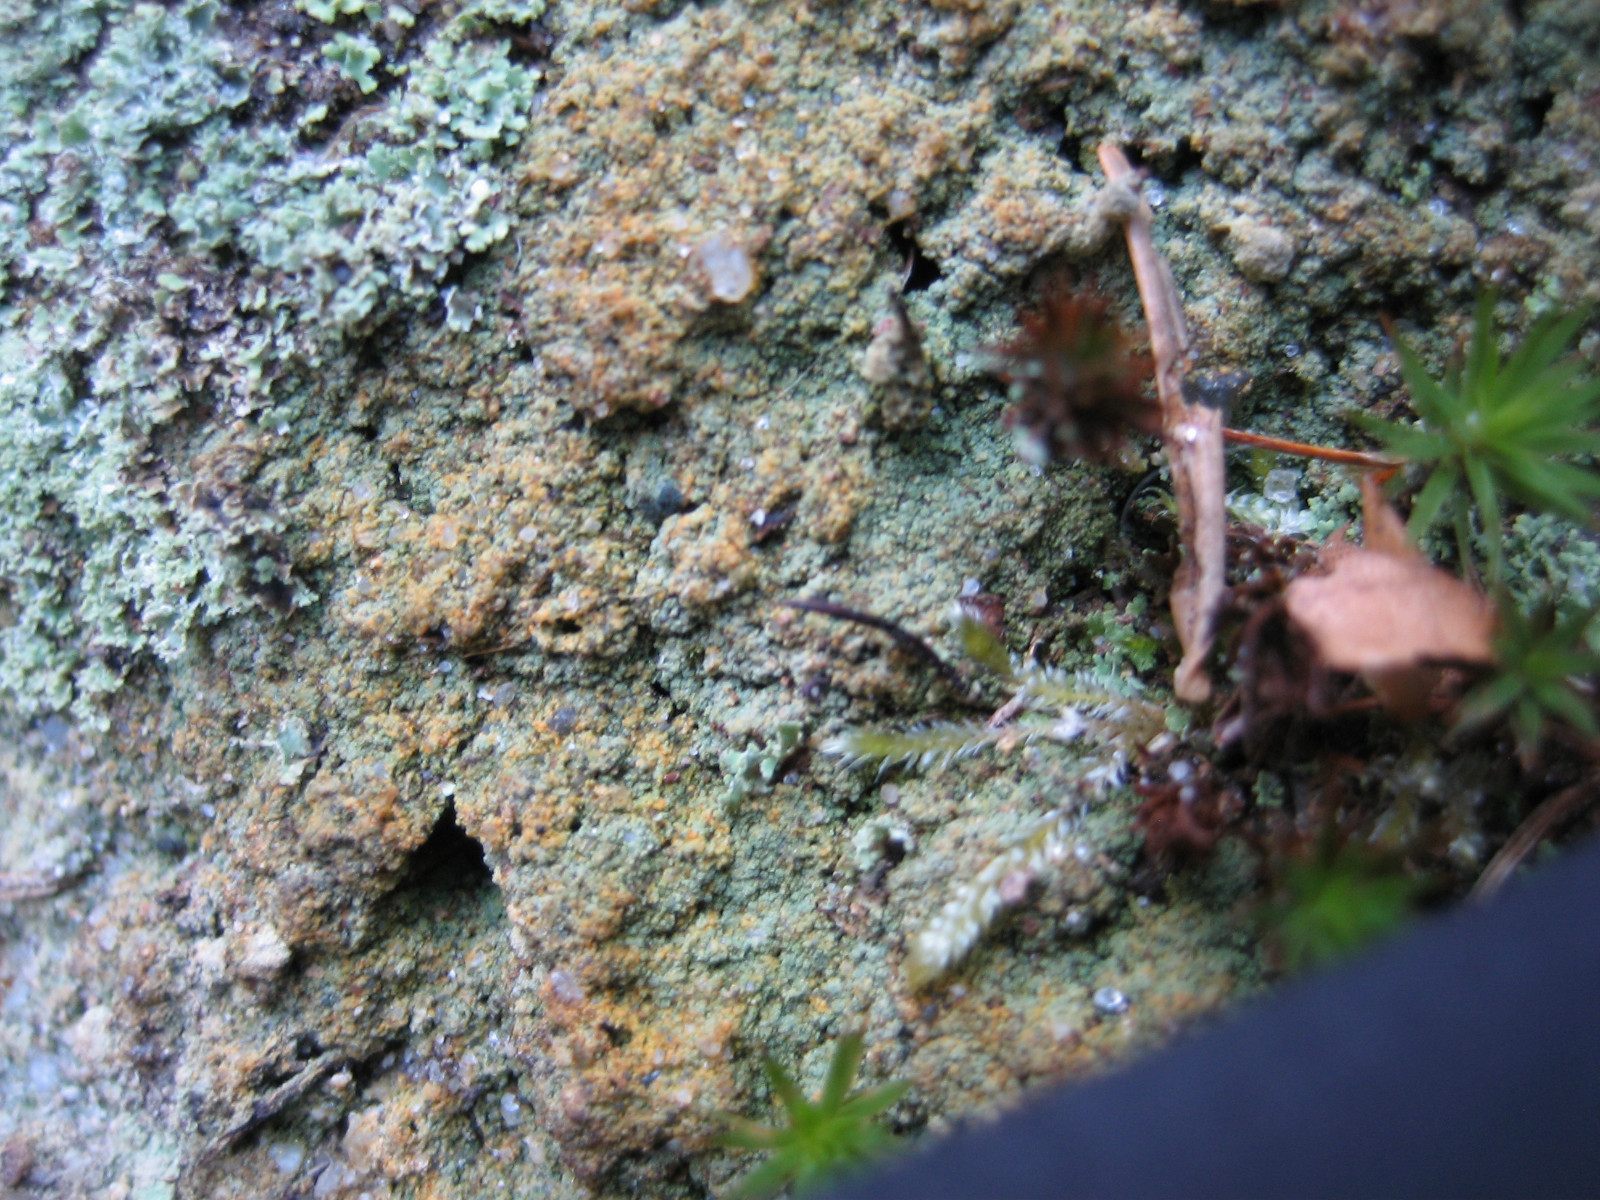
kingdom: Fungi
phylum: Ascomycota
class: Lecanoromycetes
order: Baeomycetales
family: Trapeliaceae
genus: Trapeliopsis
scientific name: Trapeliopsis pseudogranulosa
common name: gulbroget skivelav
